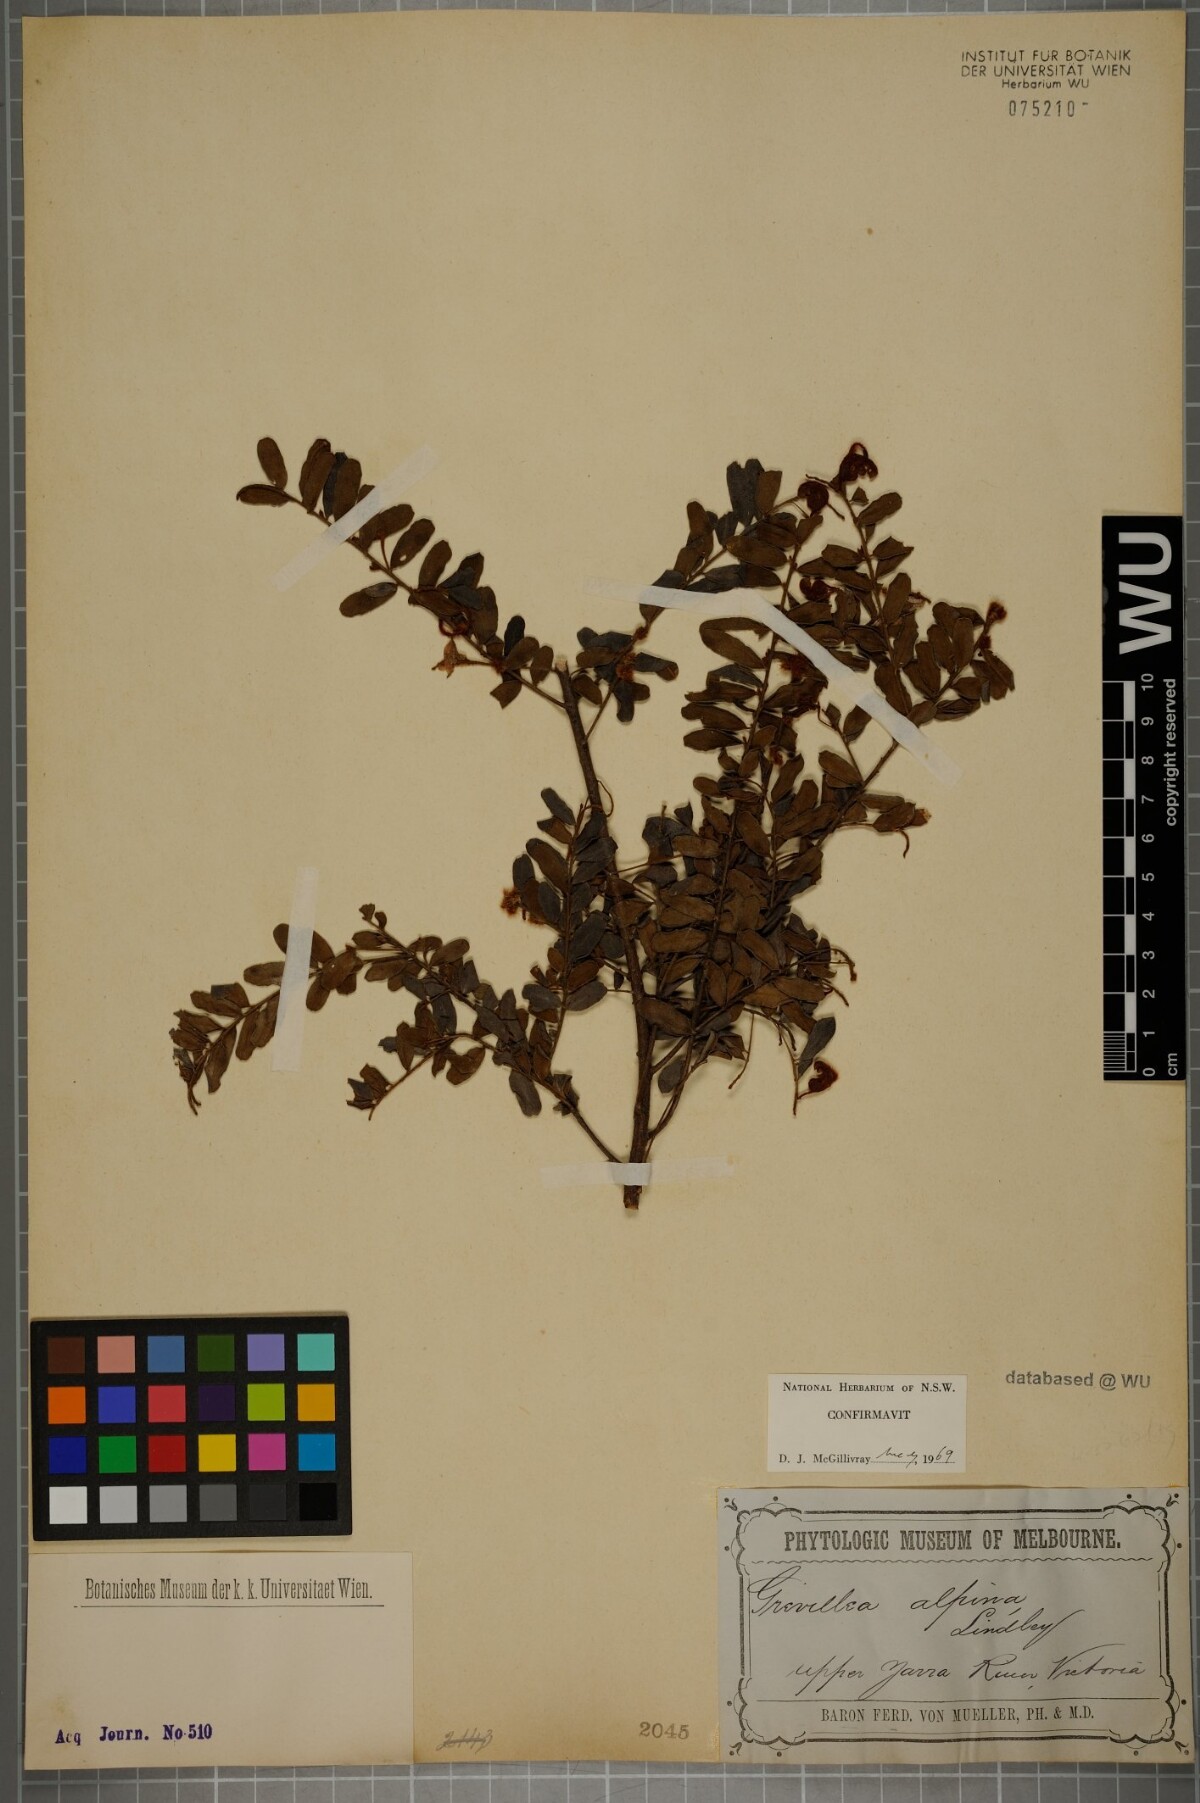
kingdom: Plantae
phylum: Tracheophyta
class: Magnoliopsida
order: Proteales
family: Proteaceae
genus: Grevillea
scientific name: Grevillea alpina
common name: Catclaws grevillea
